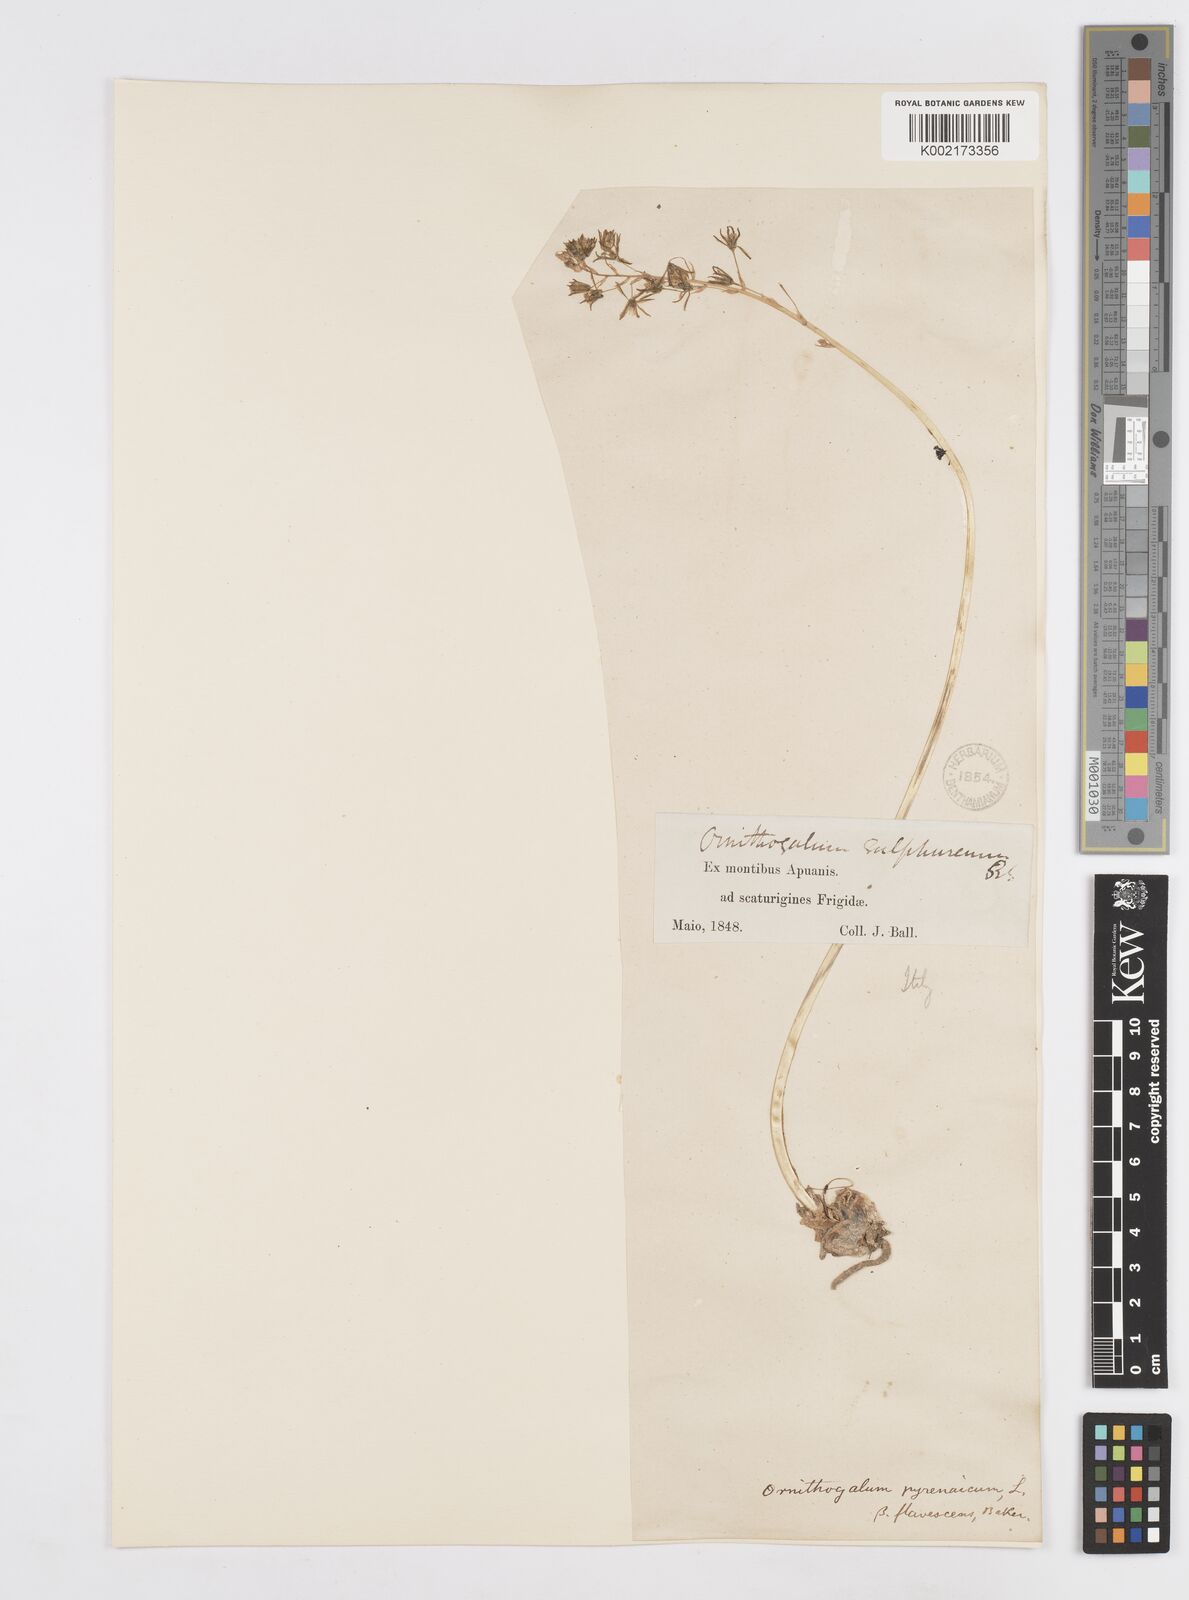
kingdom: Plantae
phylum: Tracheophyta
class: Liliopsida
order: Asparagales
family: Asparagaceae
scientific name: Asparagaceae
